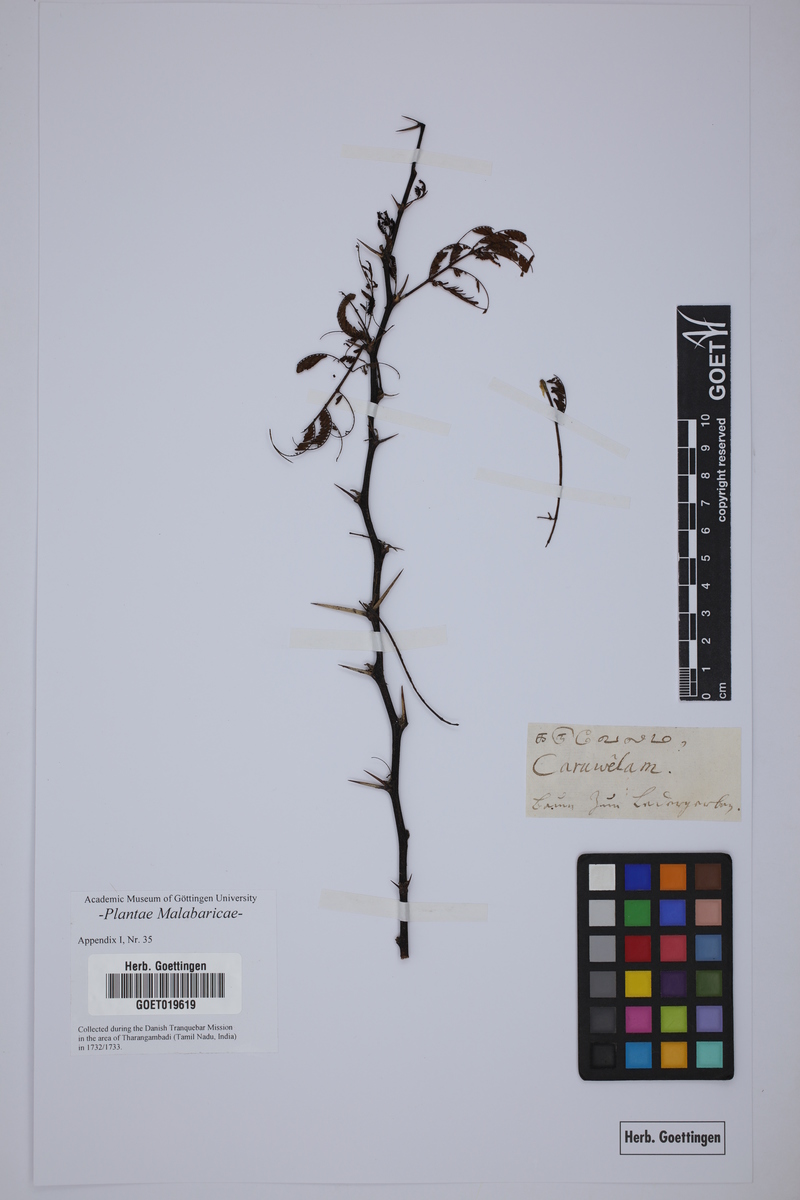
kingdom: Plantae
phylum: Tracheophyta
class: Magnoliopsida
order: Fabales
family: Fabaceae
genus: Vachellia
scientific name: Vachellia nilotica
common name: Arabic gumtree
